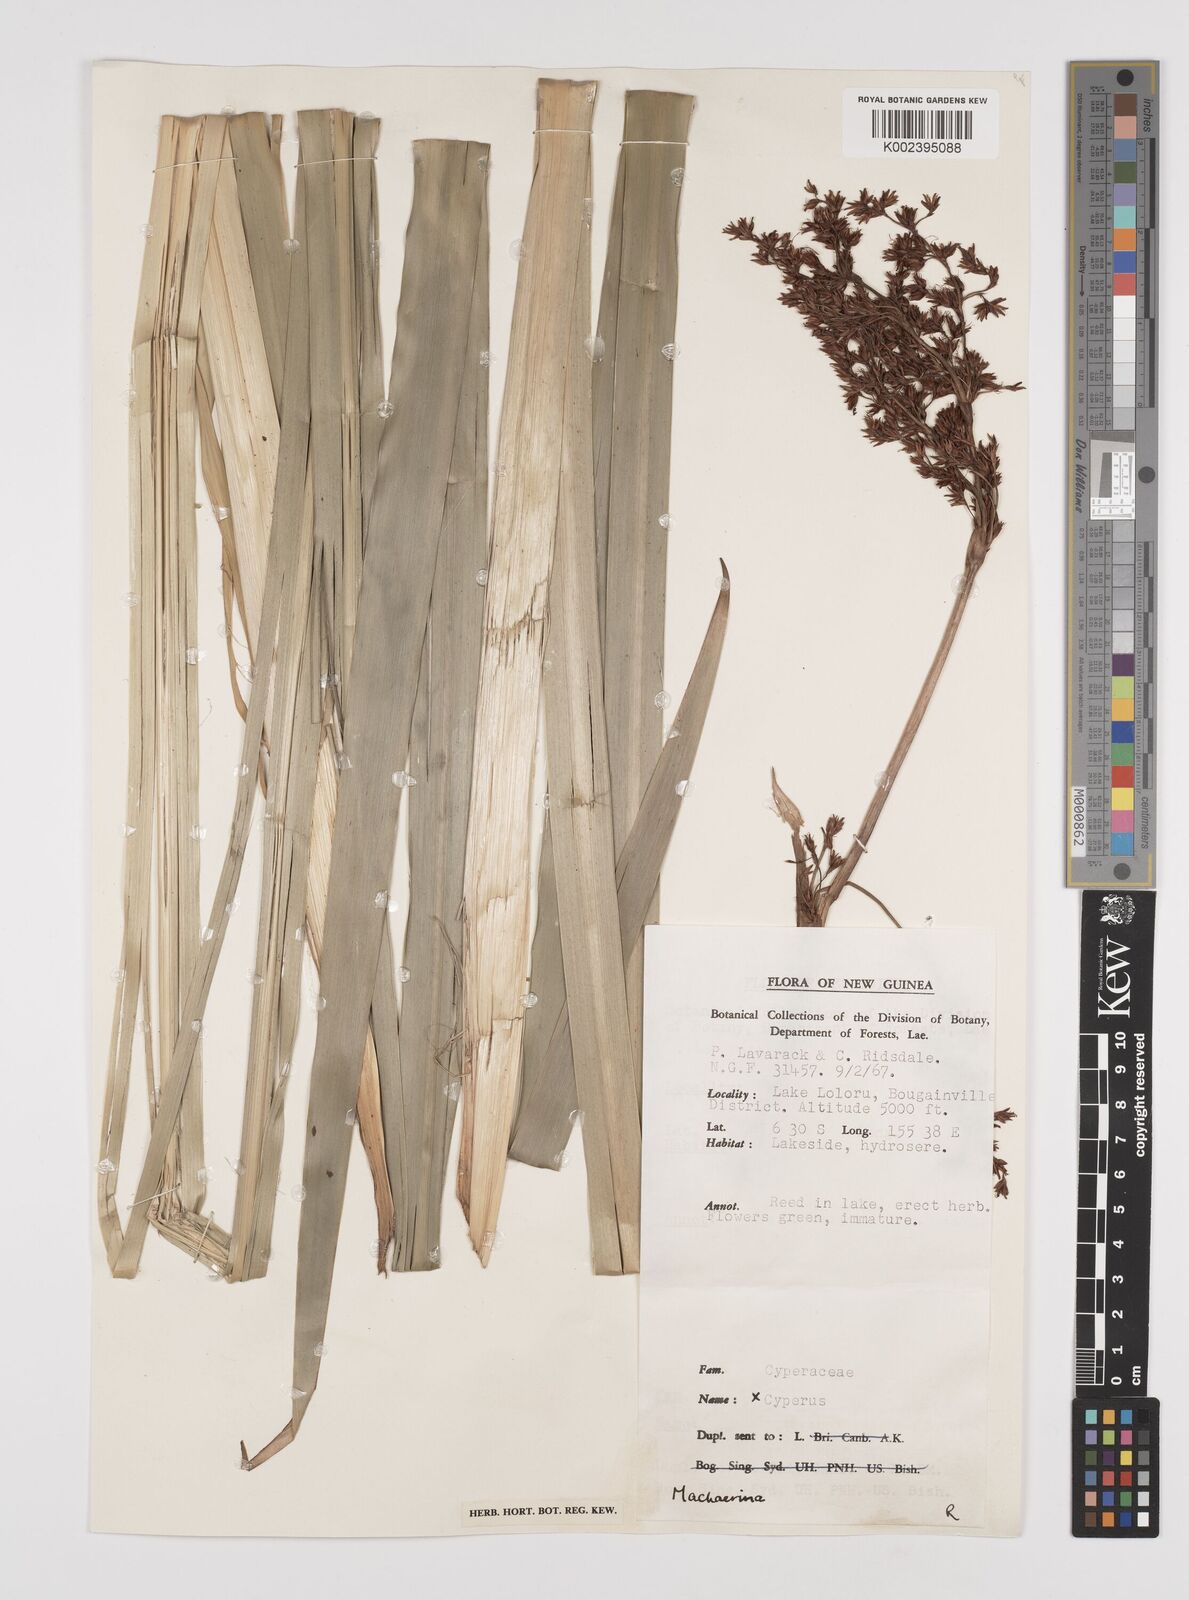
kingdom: Plantae
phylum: Tracheophyta
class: Liliopsida
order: Poales
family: Cyperaceae
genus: Machaerina
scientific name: Machaerina falcata
